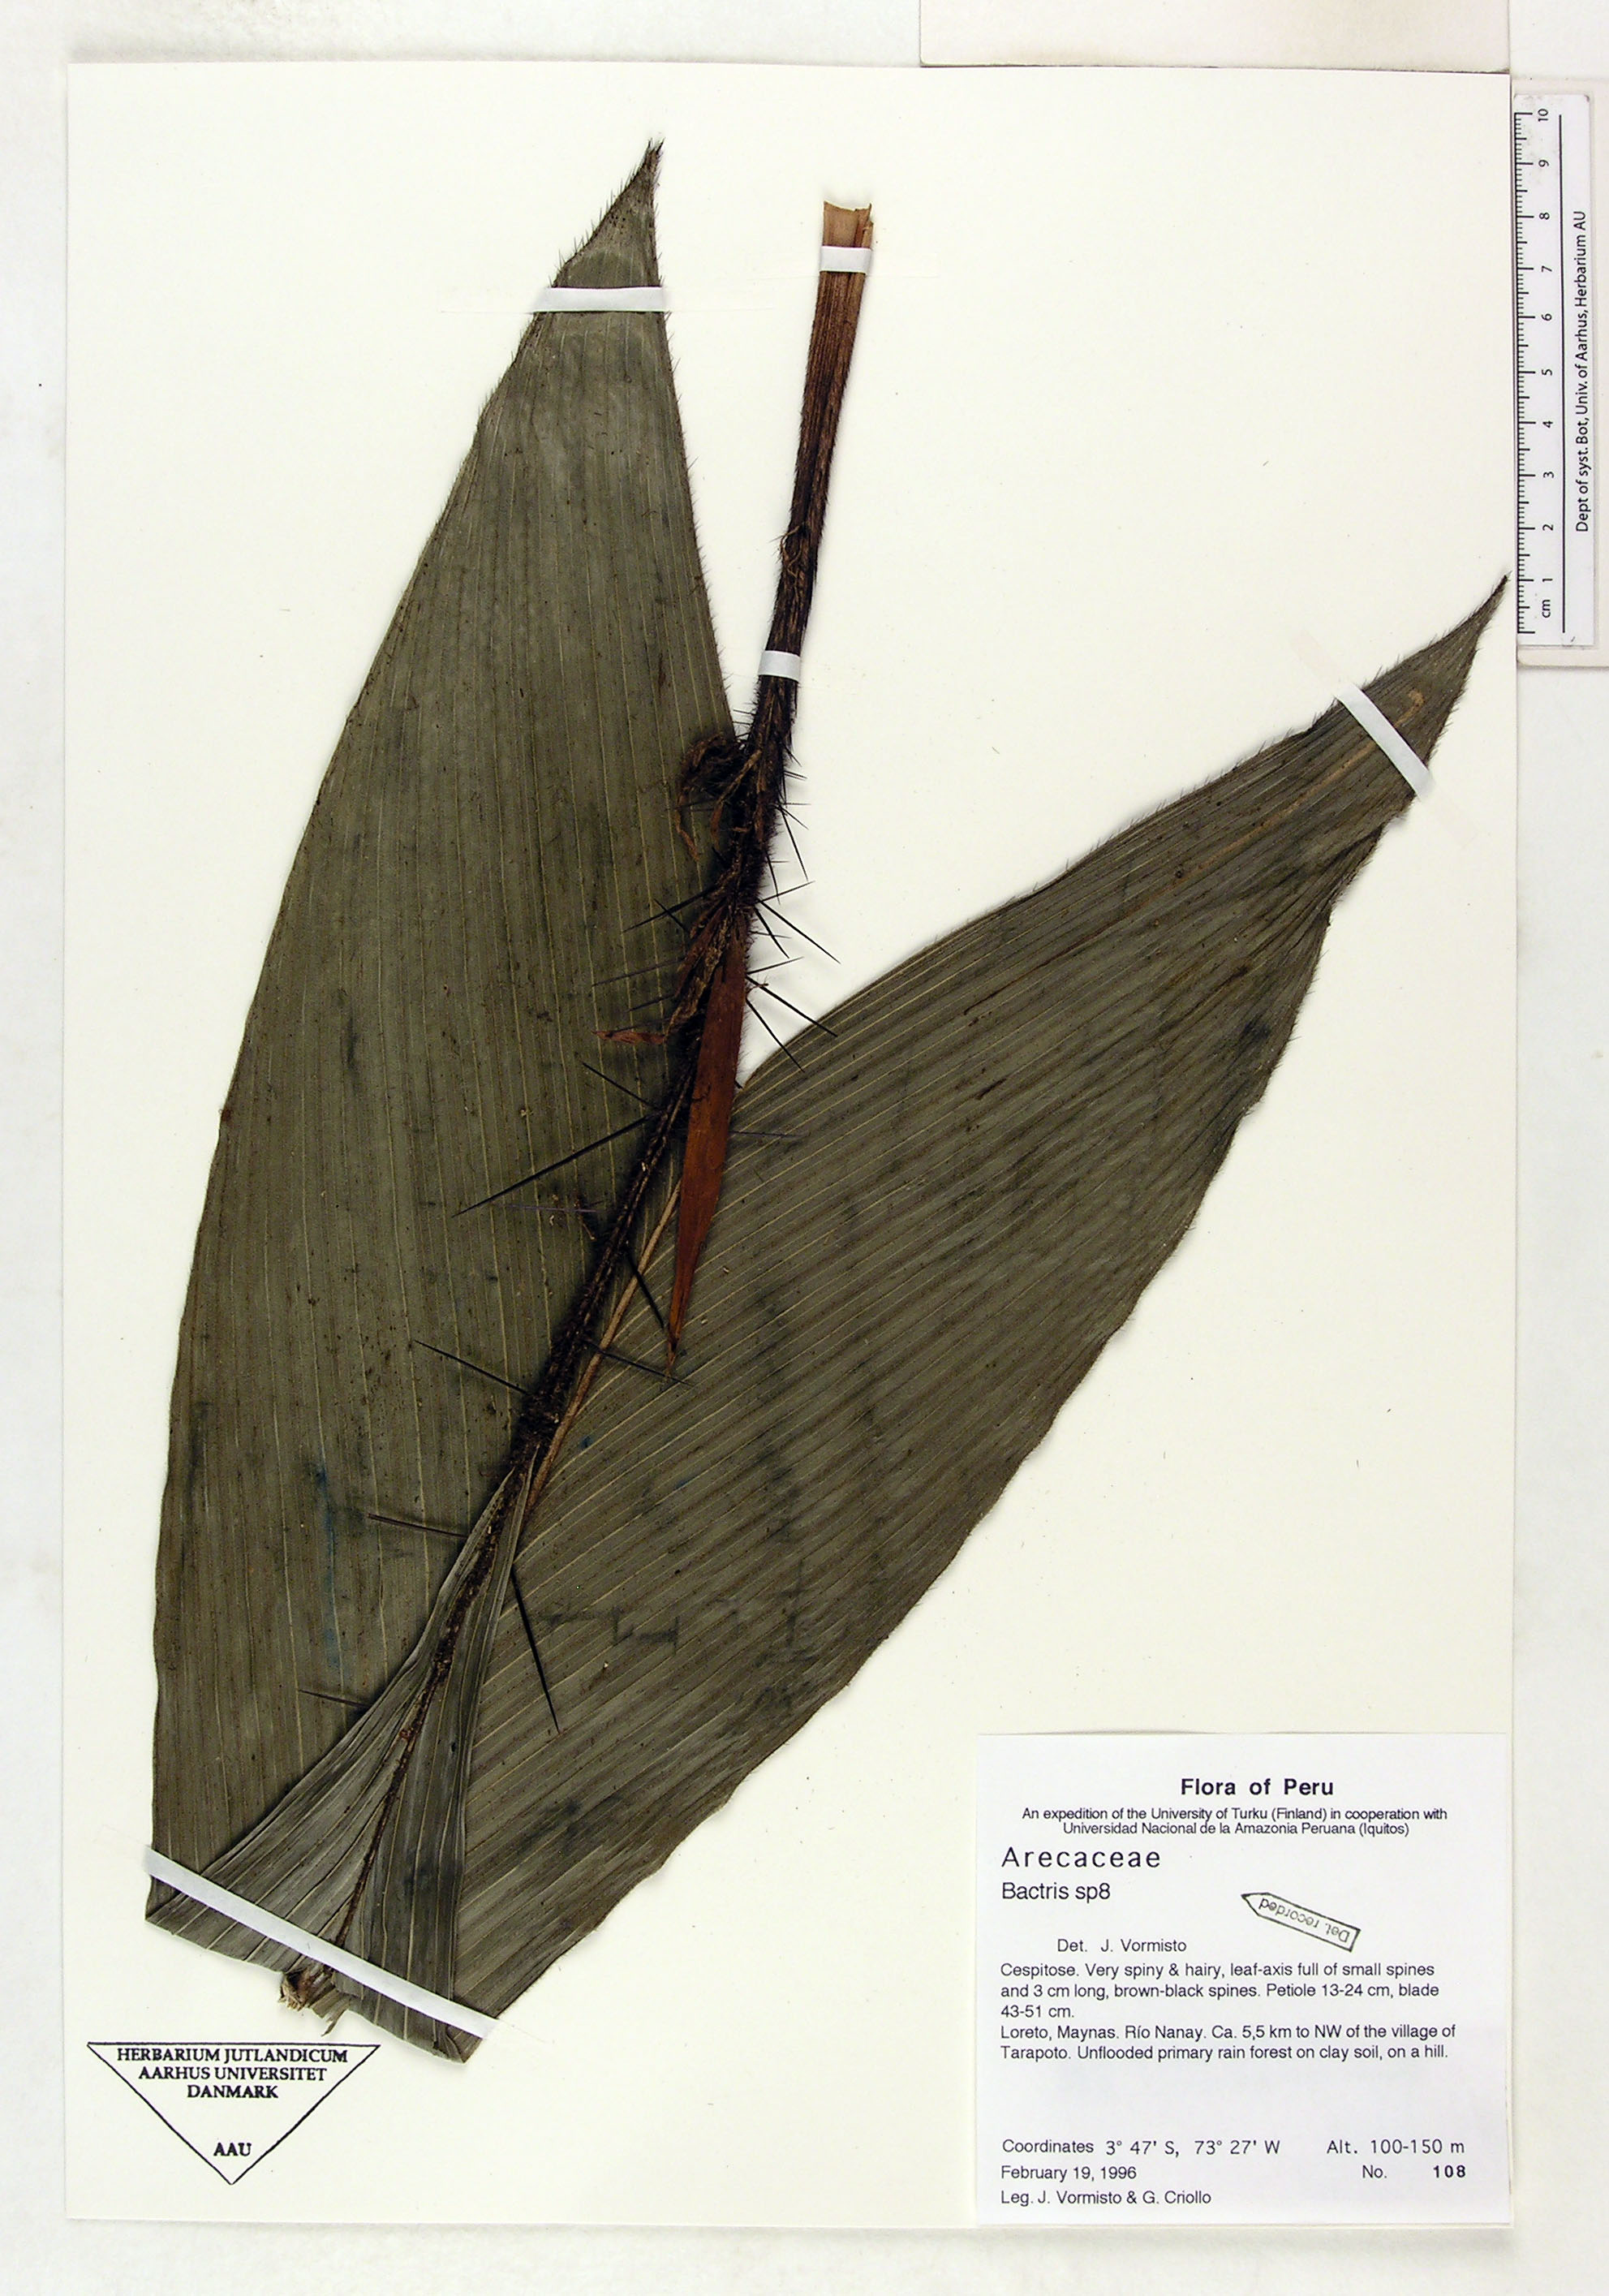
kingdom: Plantae
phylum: Tracheophyta
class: Liliopsida
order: Arecales
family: Arecaceae
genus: Bactris
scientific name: Bactris
